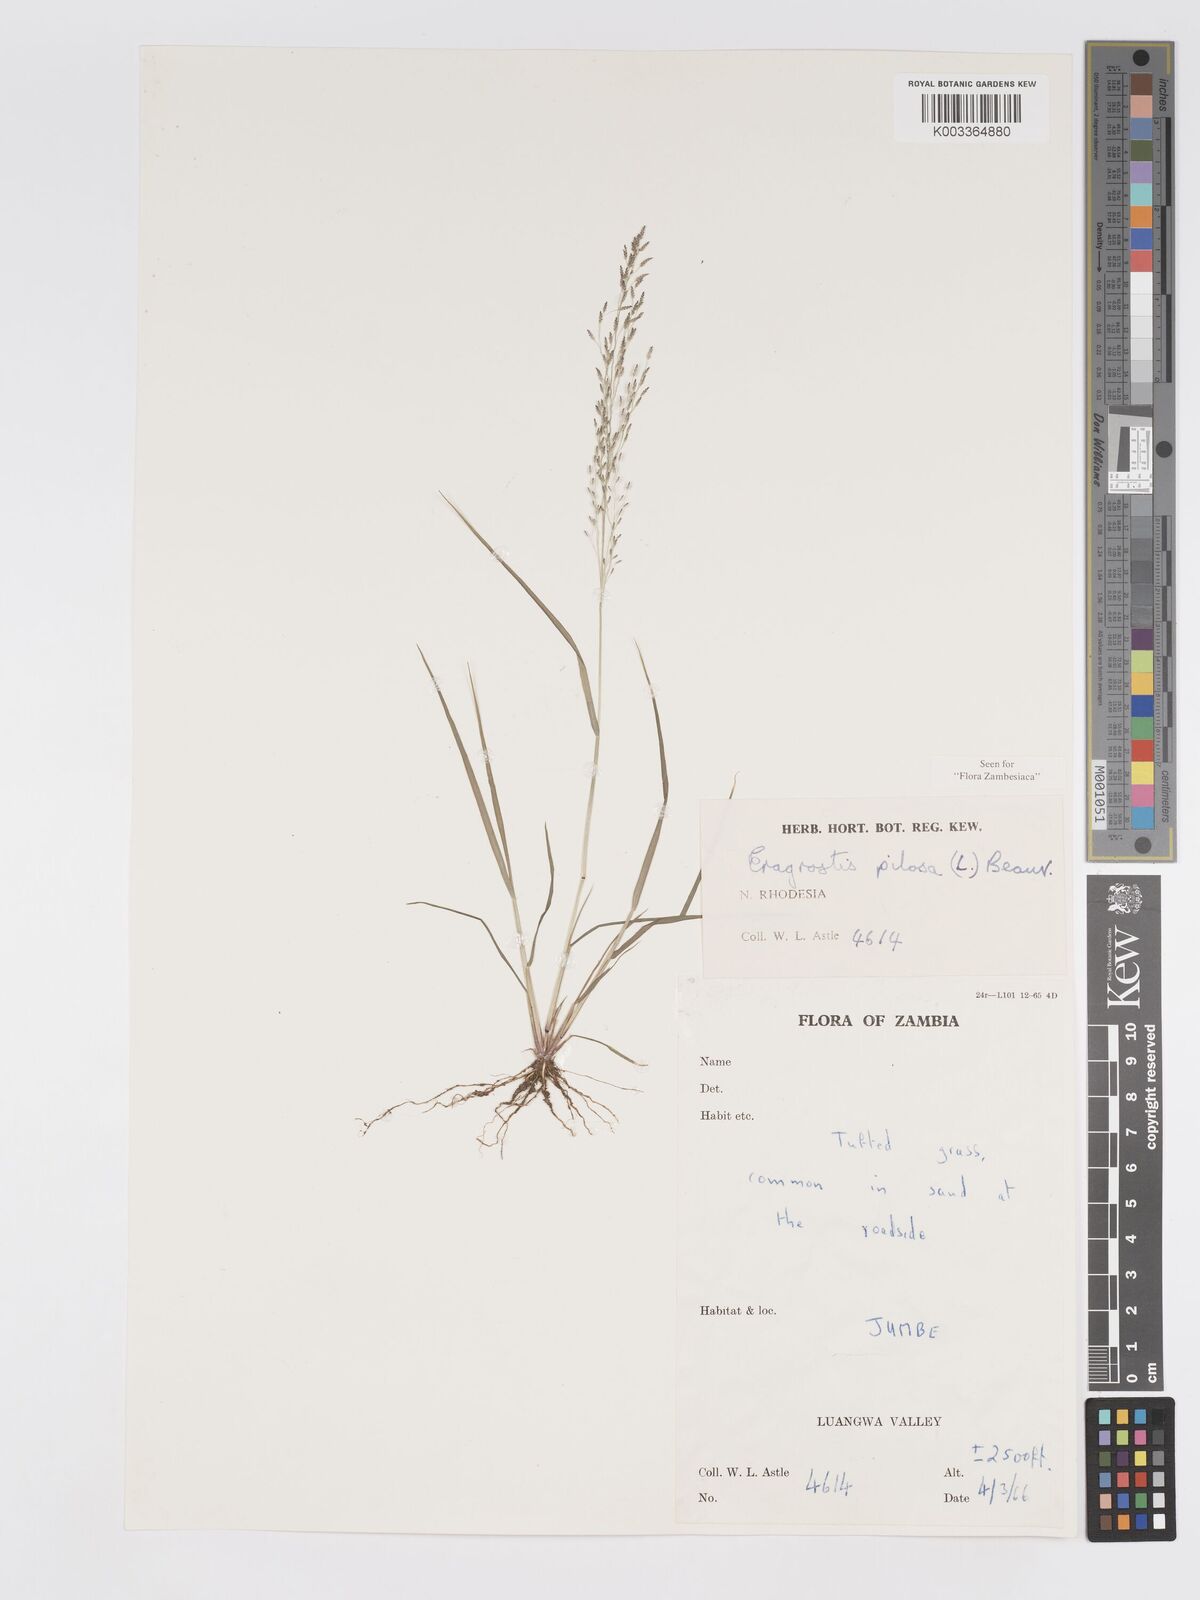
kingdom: Plantae
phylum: Tracheophyta
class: Liliopsida
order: Poales
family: Poaceae
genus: Eragrostis
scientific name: Eragrostis pilosa
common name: Indian lovegrass
